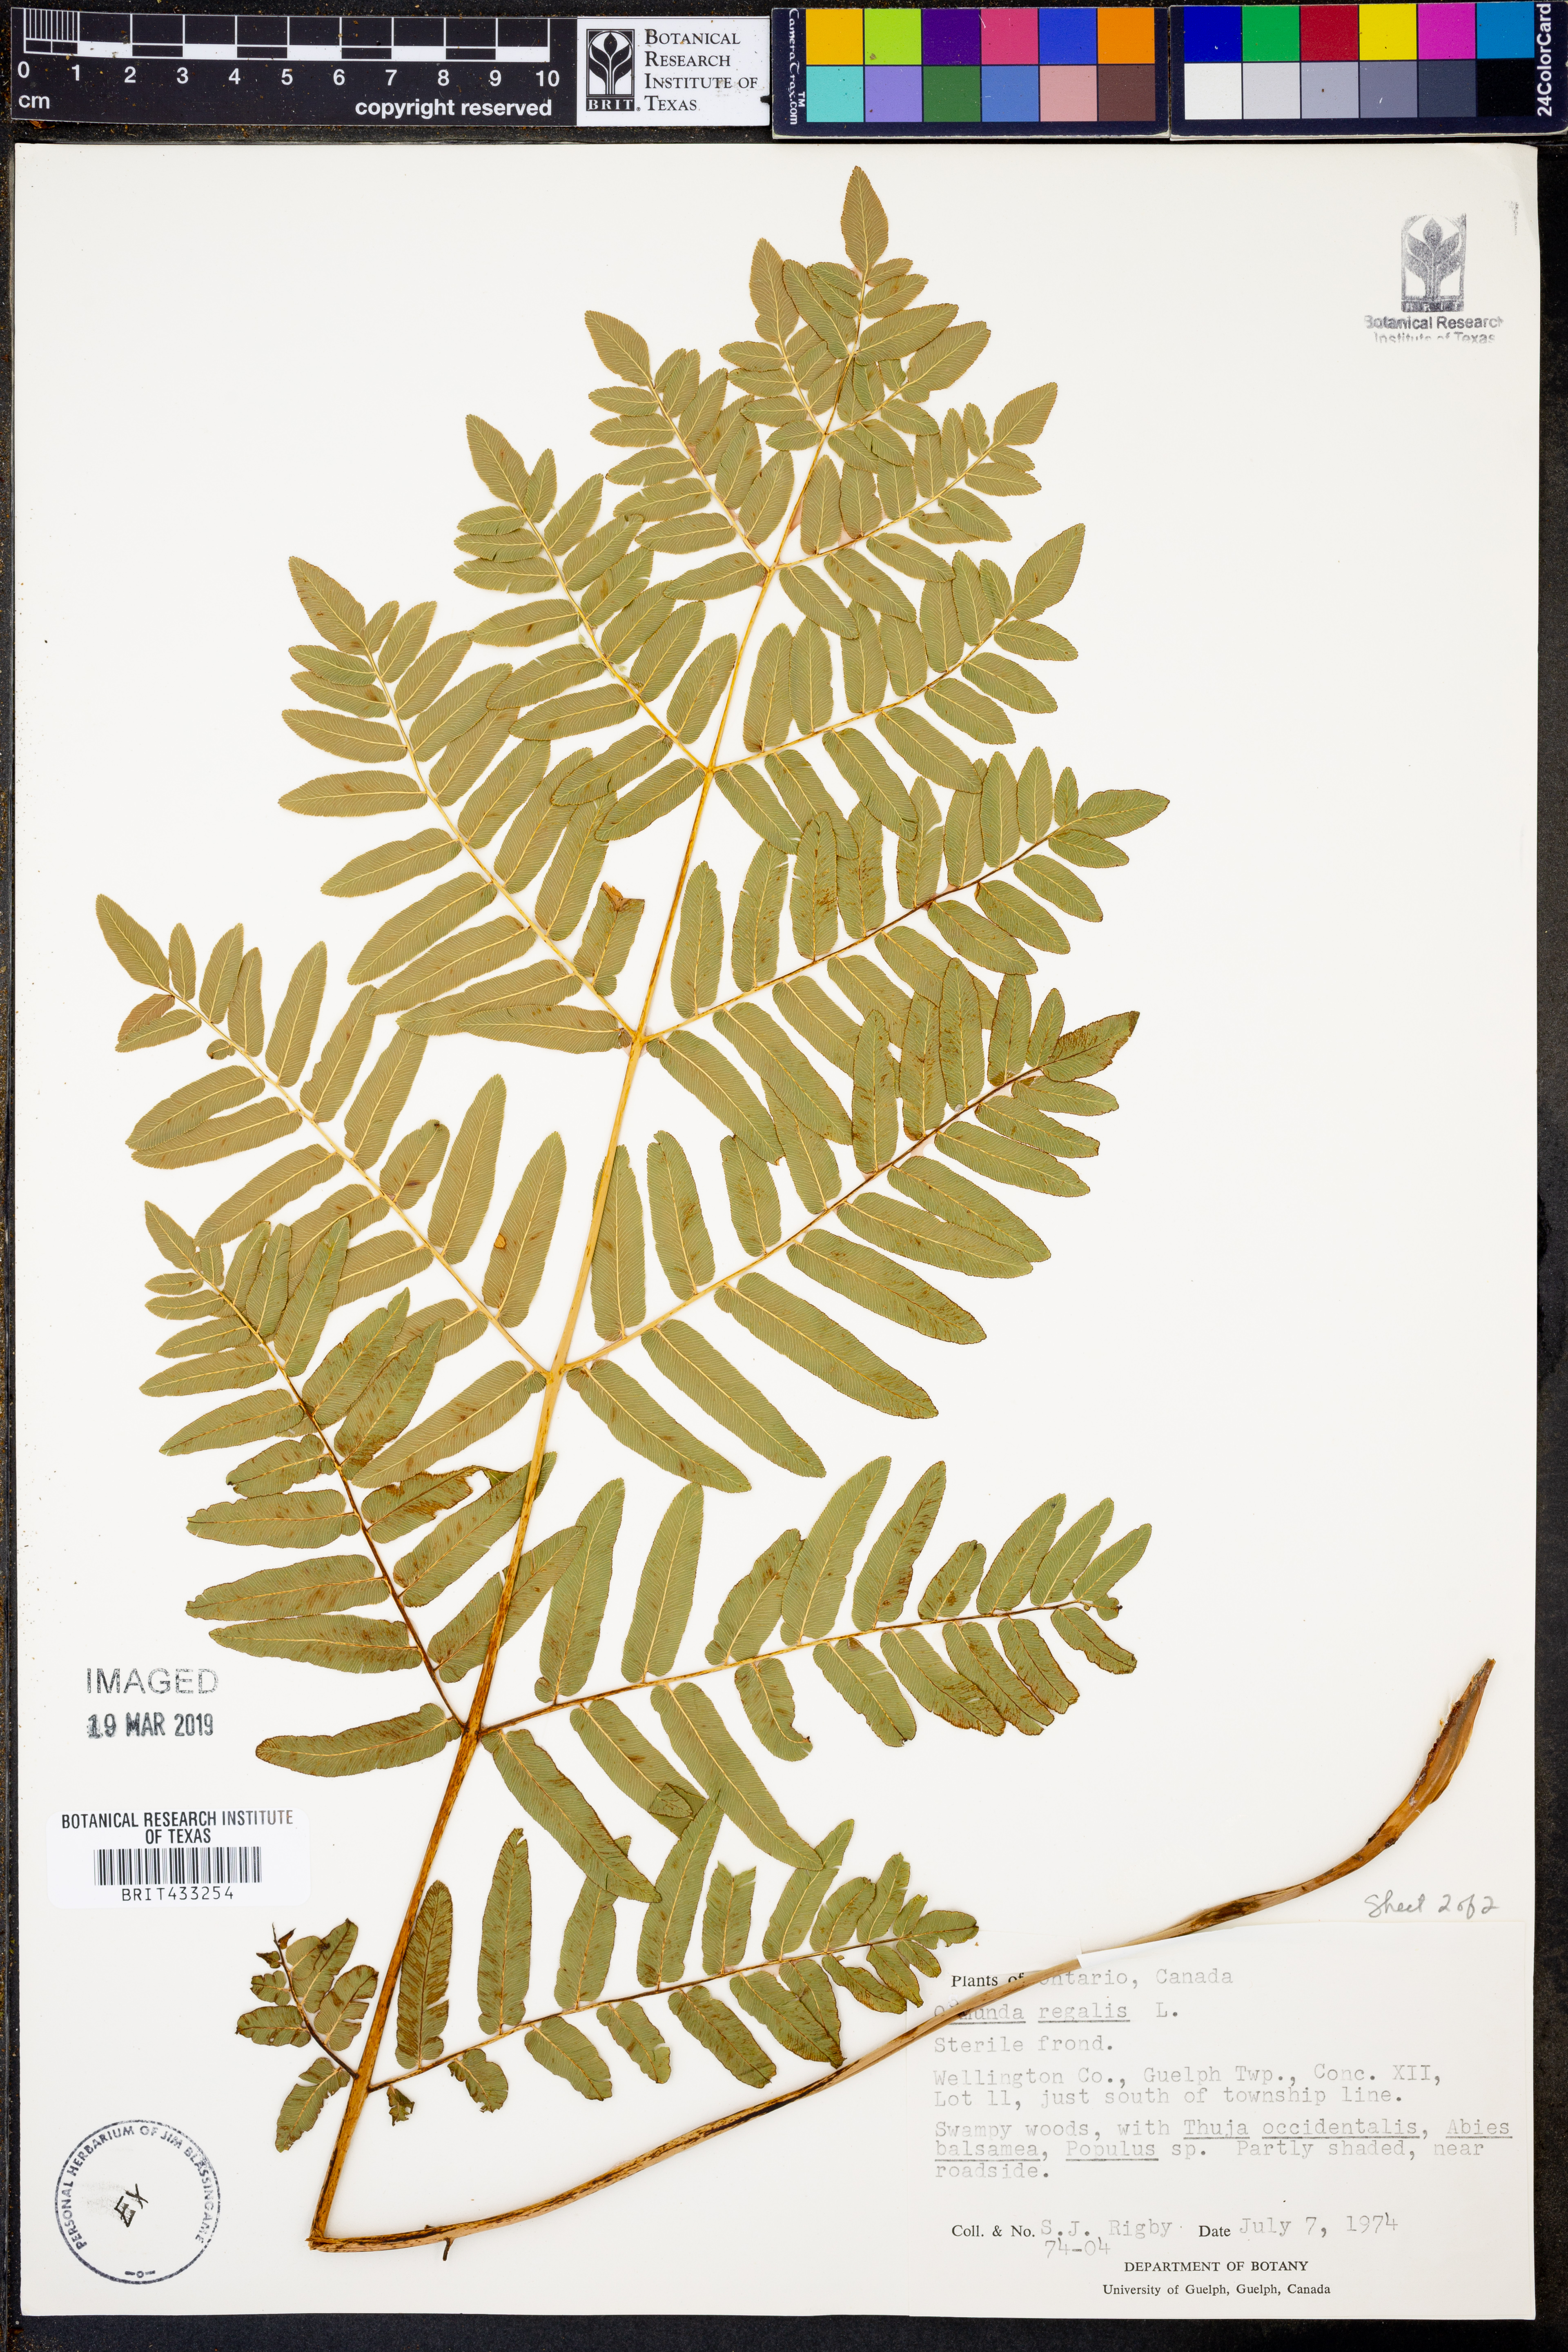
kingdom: Plantae
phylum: Tracheophyta
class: Polypodiopsida
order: Osmundales
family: Osmundaceae
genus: Osmunda
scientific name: Osmunda regalis
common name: Royal fern
